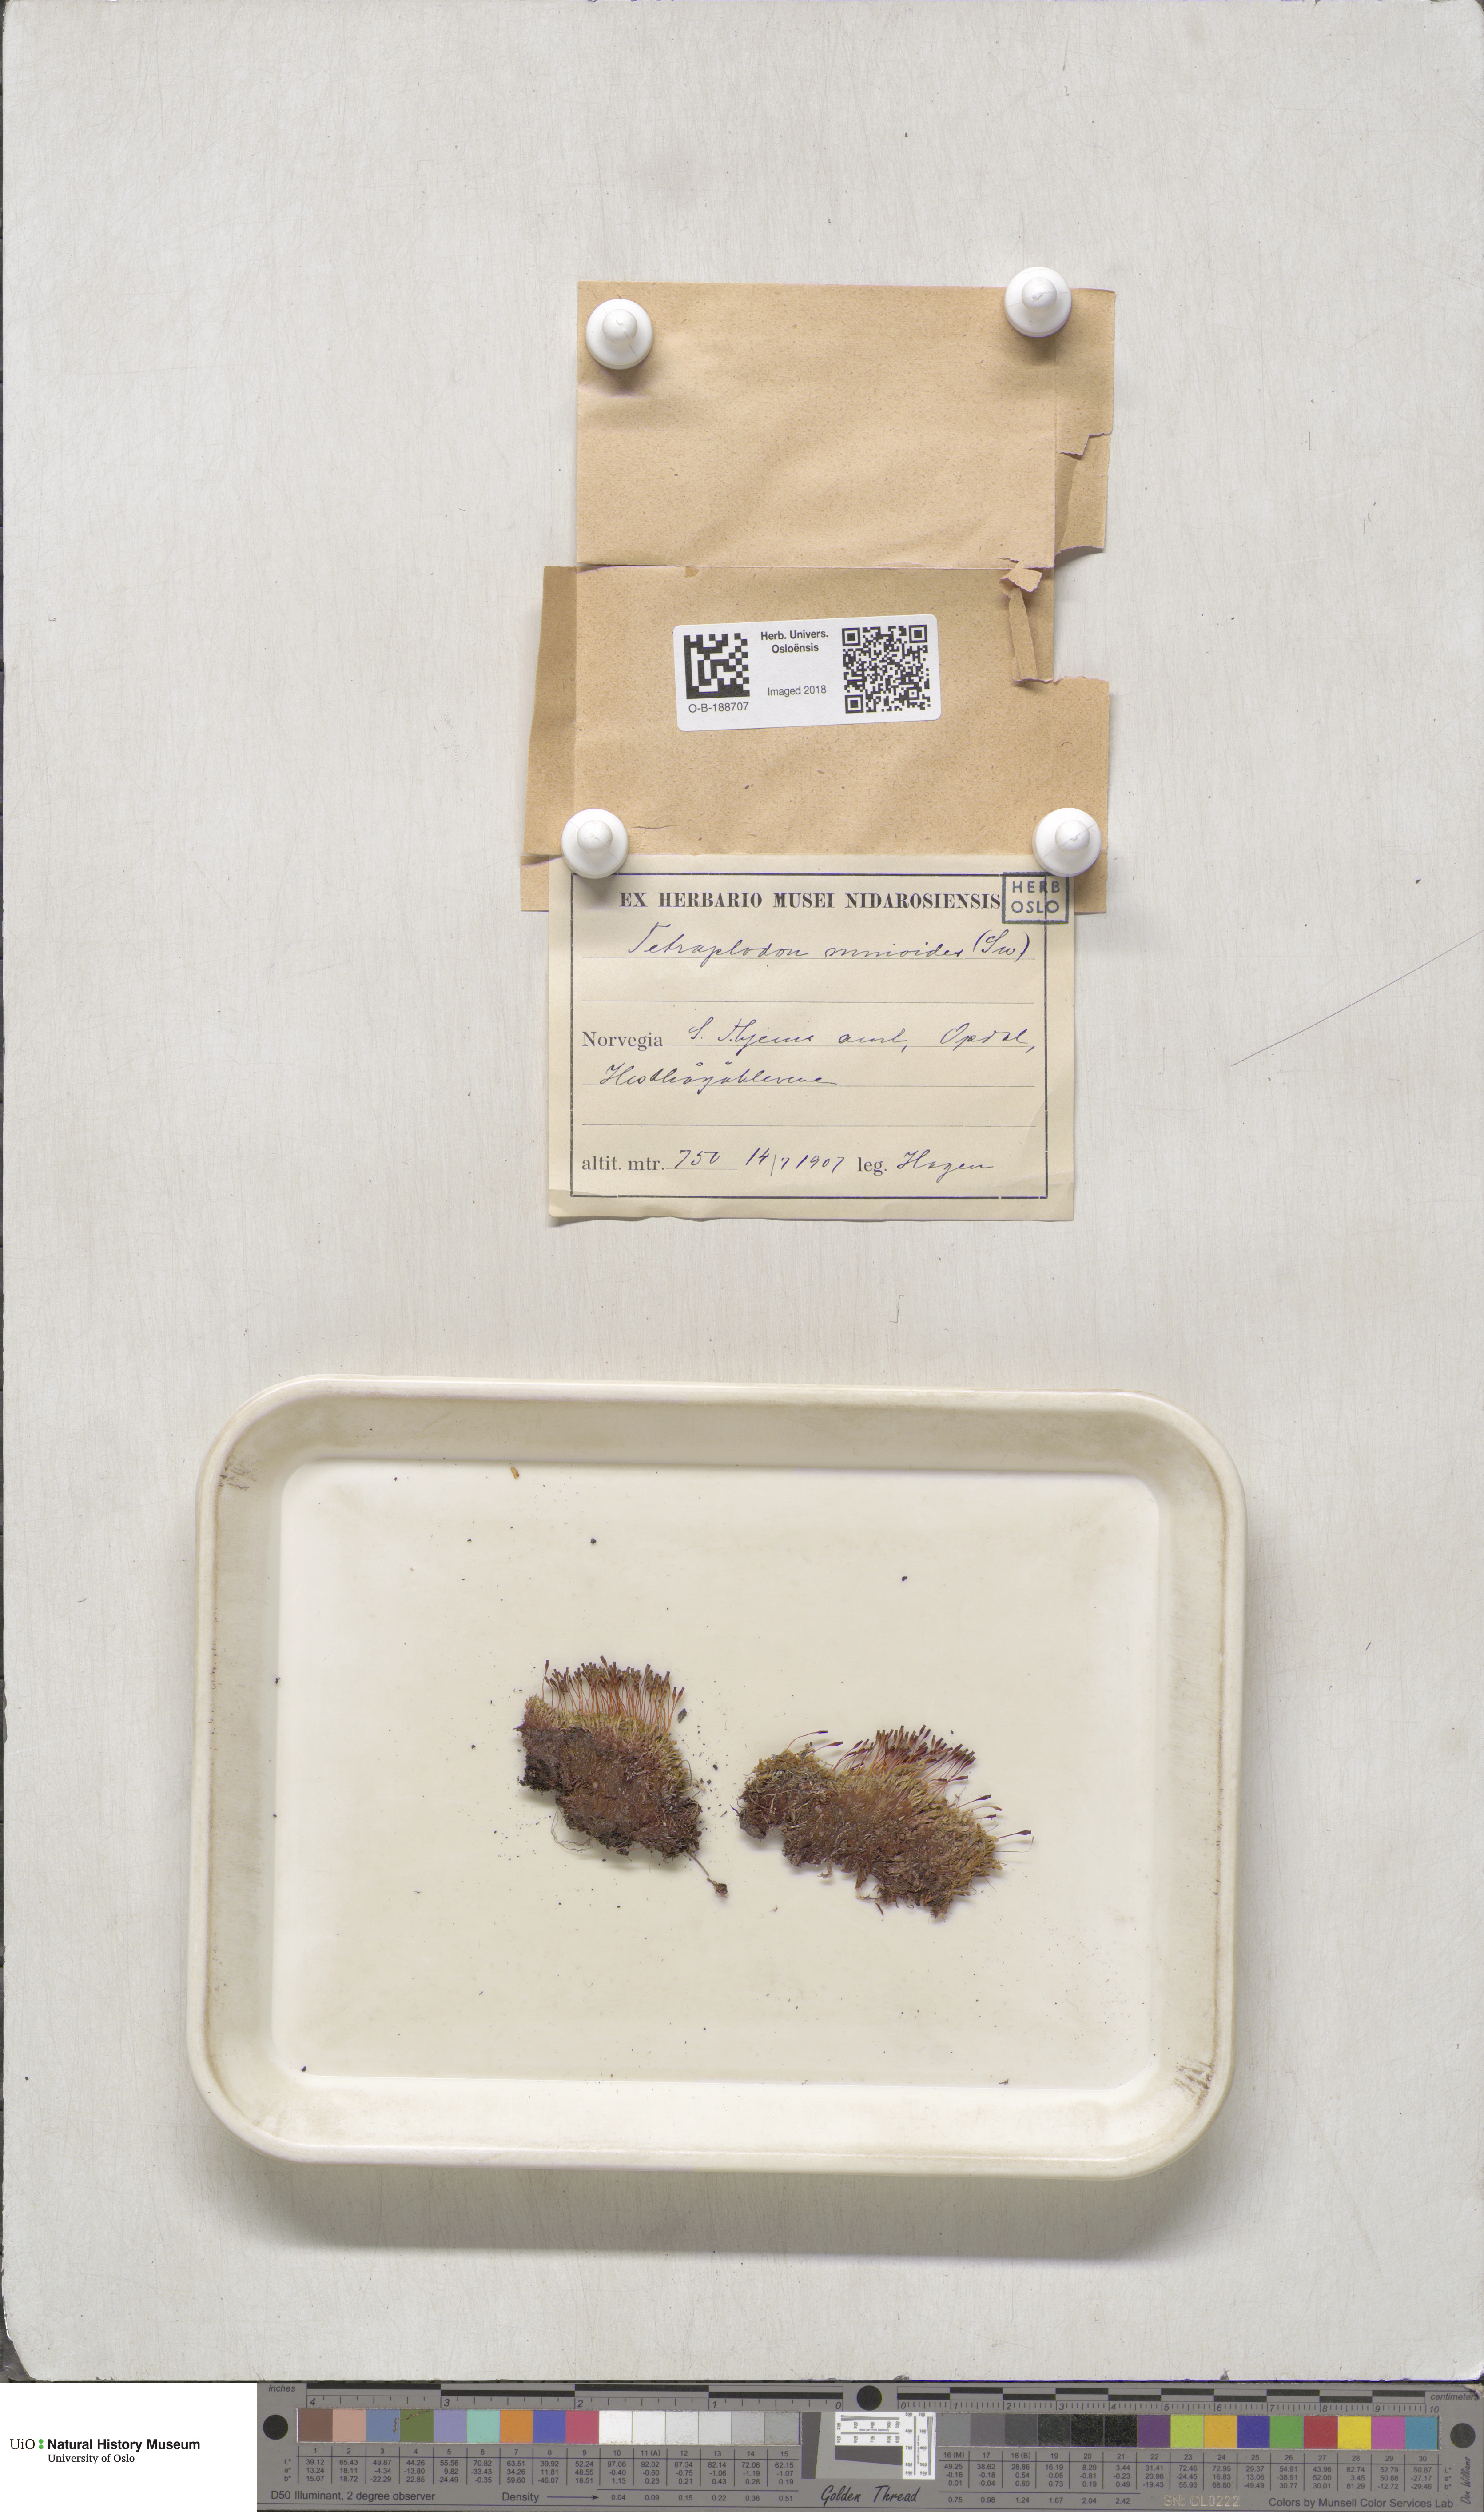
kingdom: Plantae
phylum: Bryophyta
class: Bryopsida
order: Splachnales
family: Splachnaceae
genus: Tetraplodon
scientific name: Tetraplodon mnioides
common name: Entire-leaved nitrogen moss
